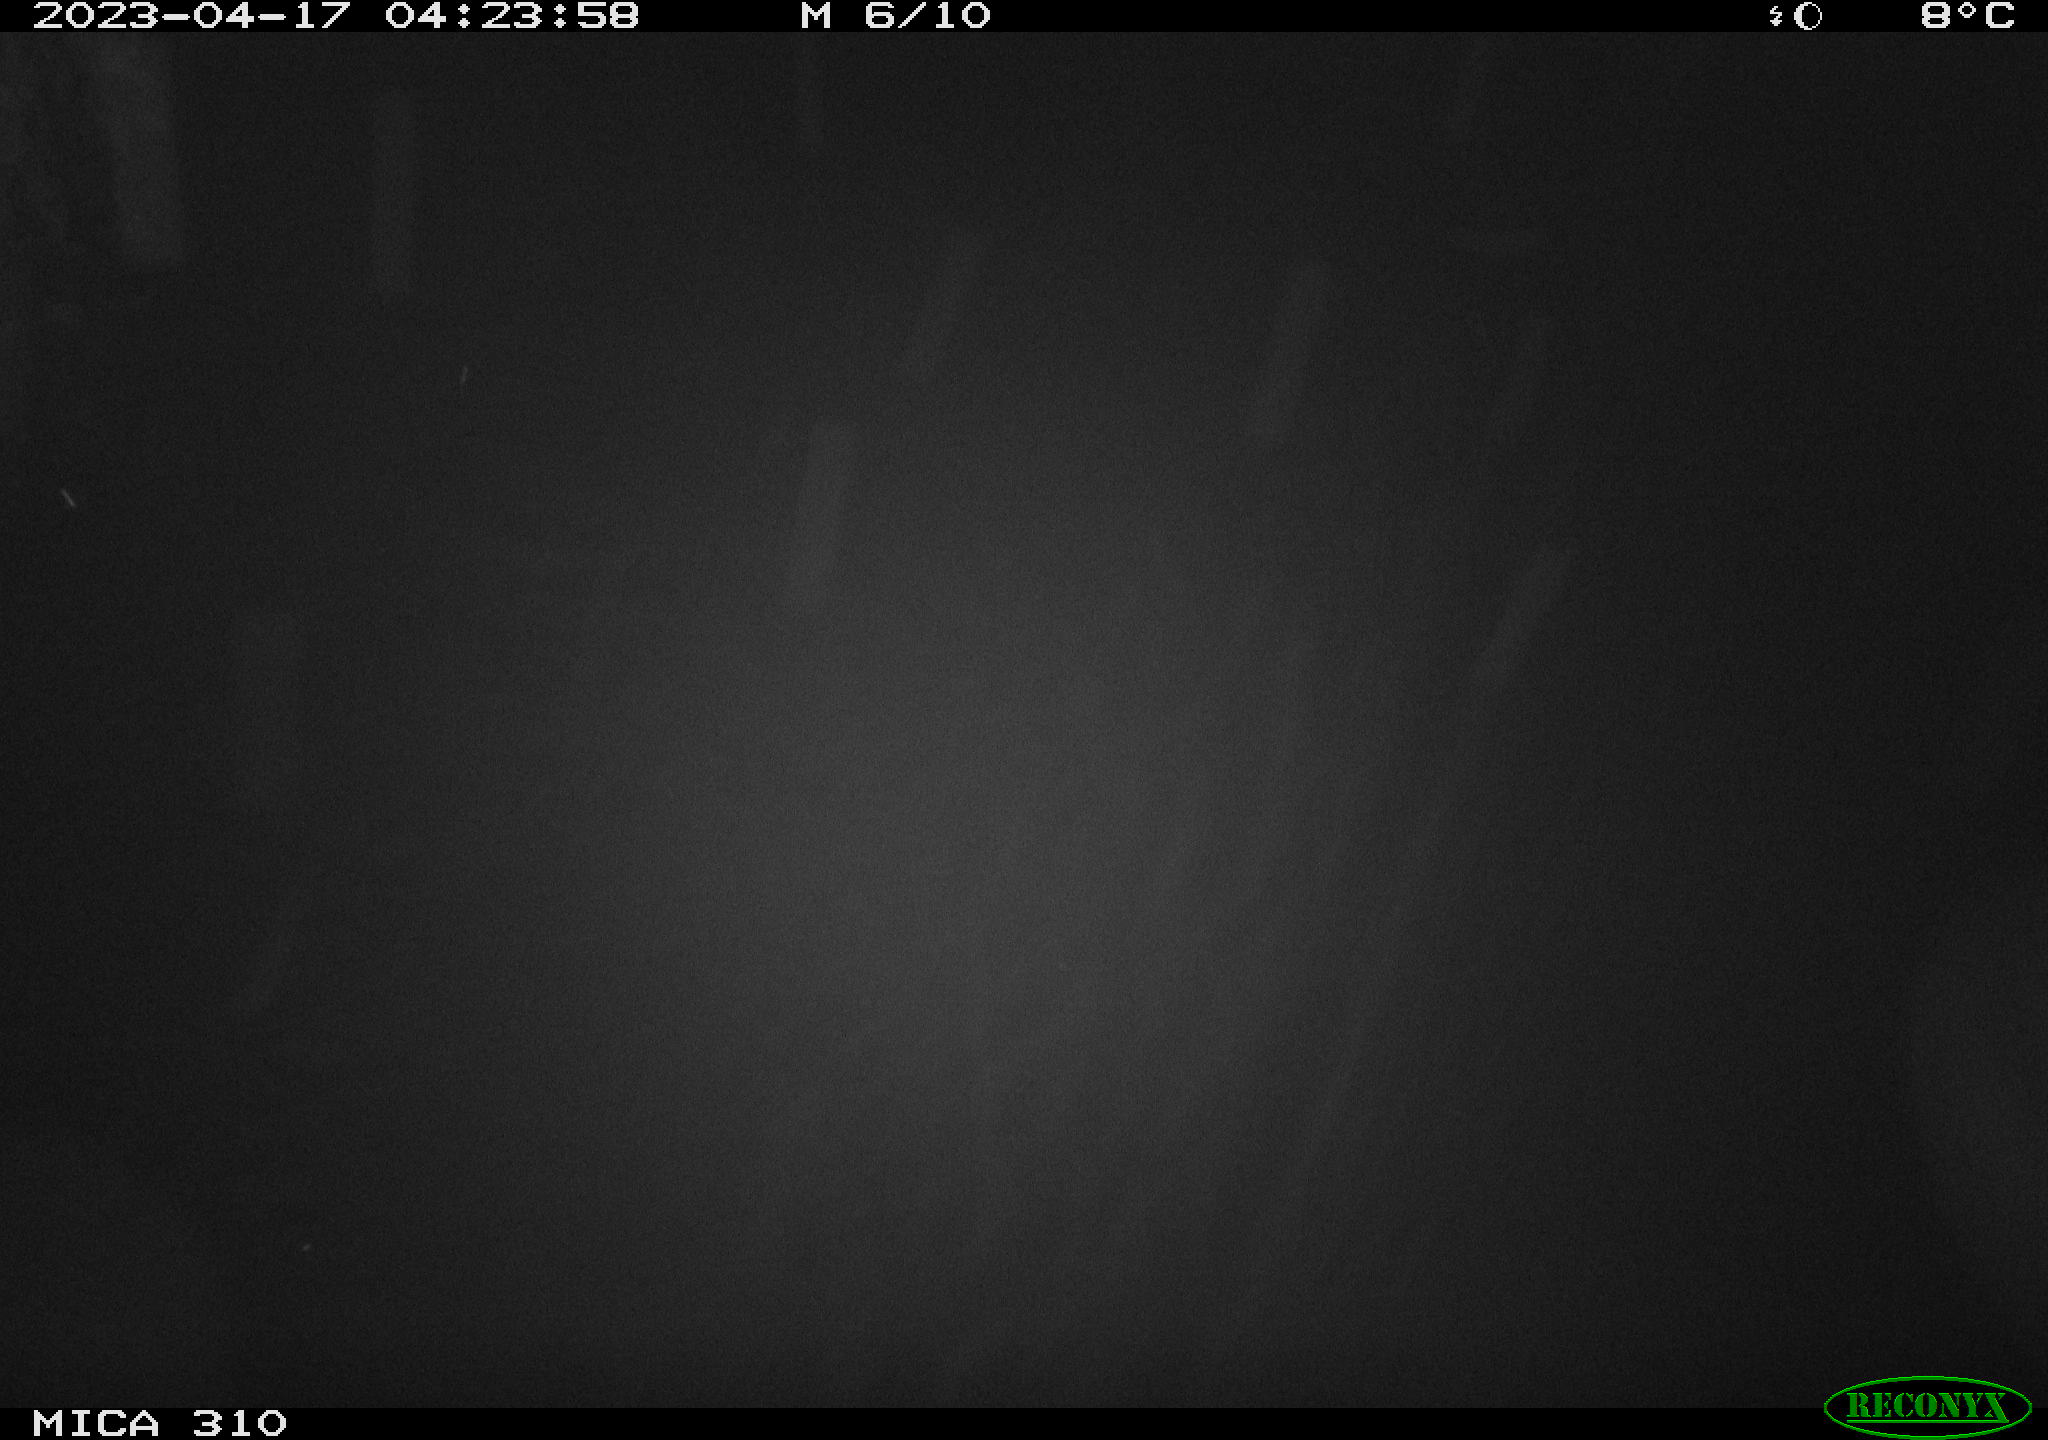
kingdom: Animalia
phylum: Chordata
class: Mammalia
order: Rodentia
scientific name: Rodentia
